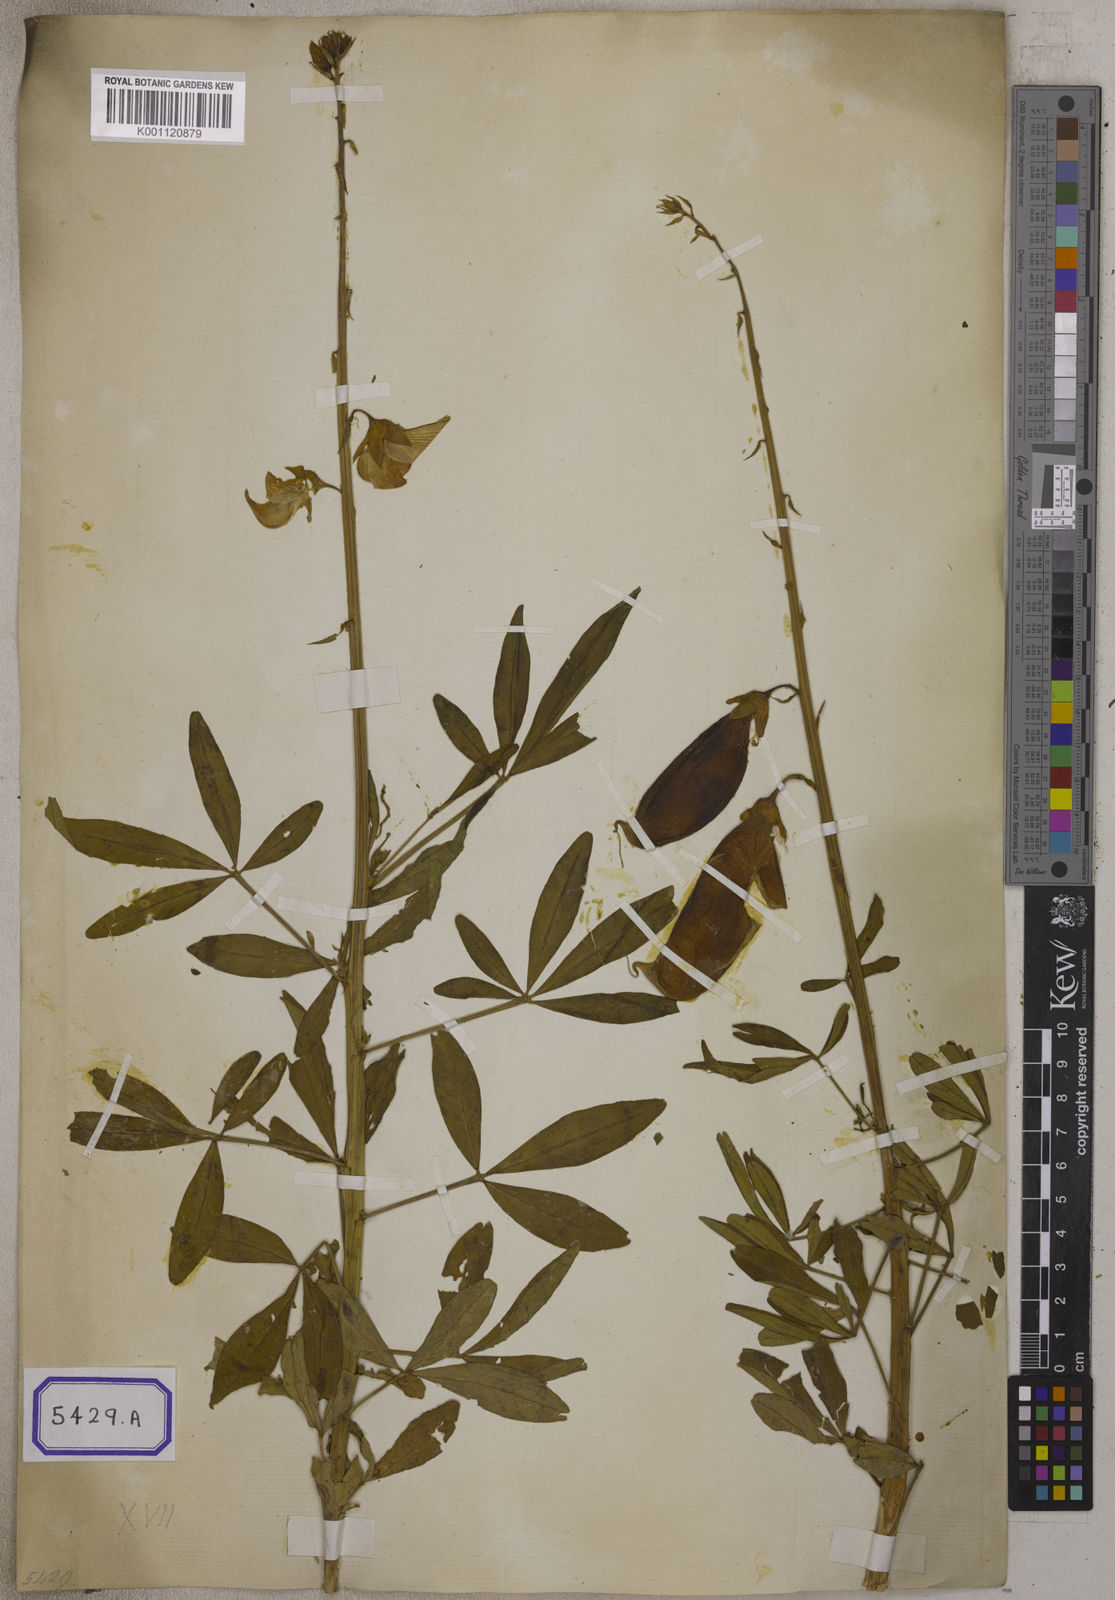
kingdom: Plantae
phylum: Tracheophyta
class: Magnoliopsida
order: Fabales
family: Fabaceae
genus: Crotalaria
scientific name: Crotalaria quinquefolia
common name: Five-leaf crotalaria
